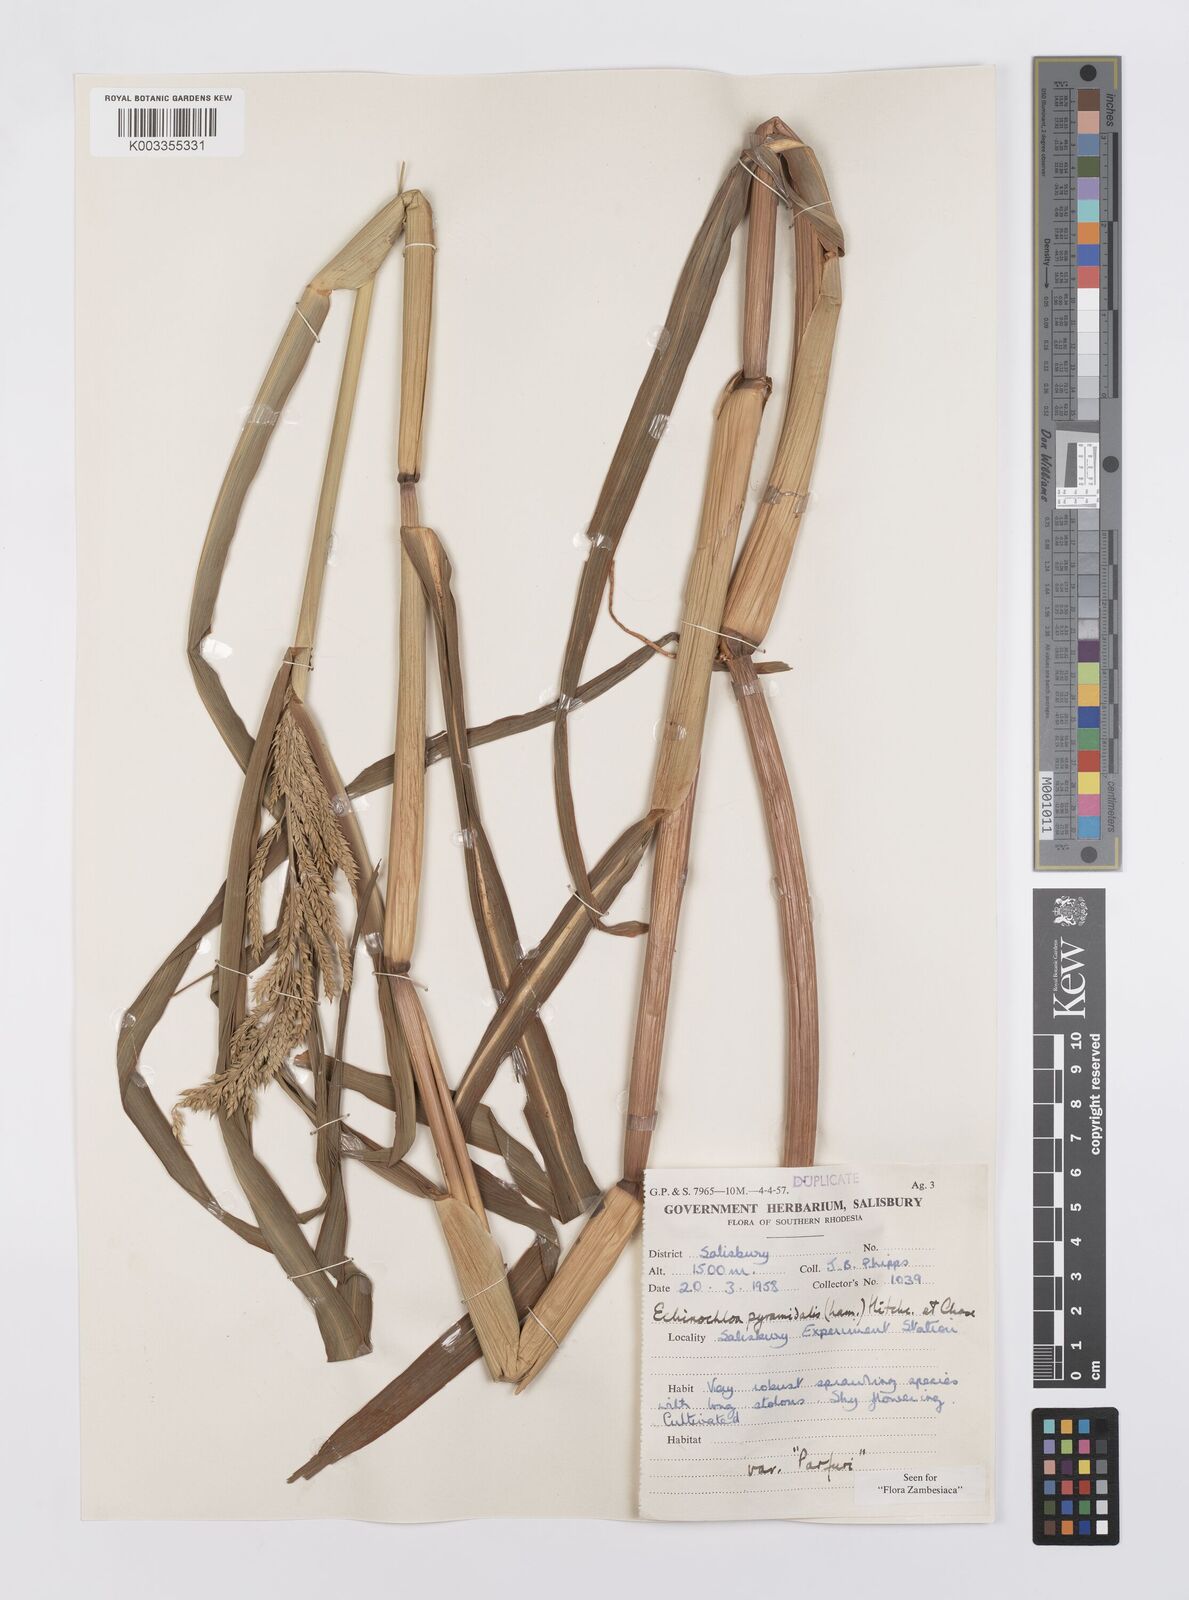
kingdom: Plantae
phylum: Tracheophyta
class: Liliopsida
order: Poales
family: Poaceae
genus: Echinochloa
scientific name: Echinochloa pyramidalis
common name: Antelope grass
